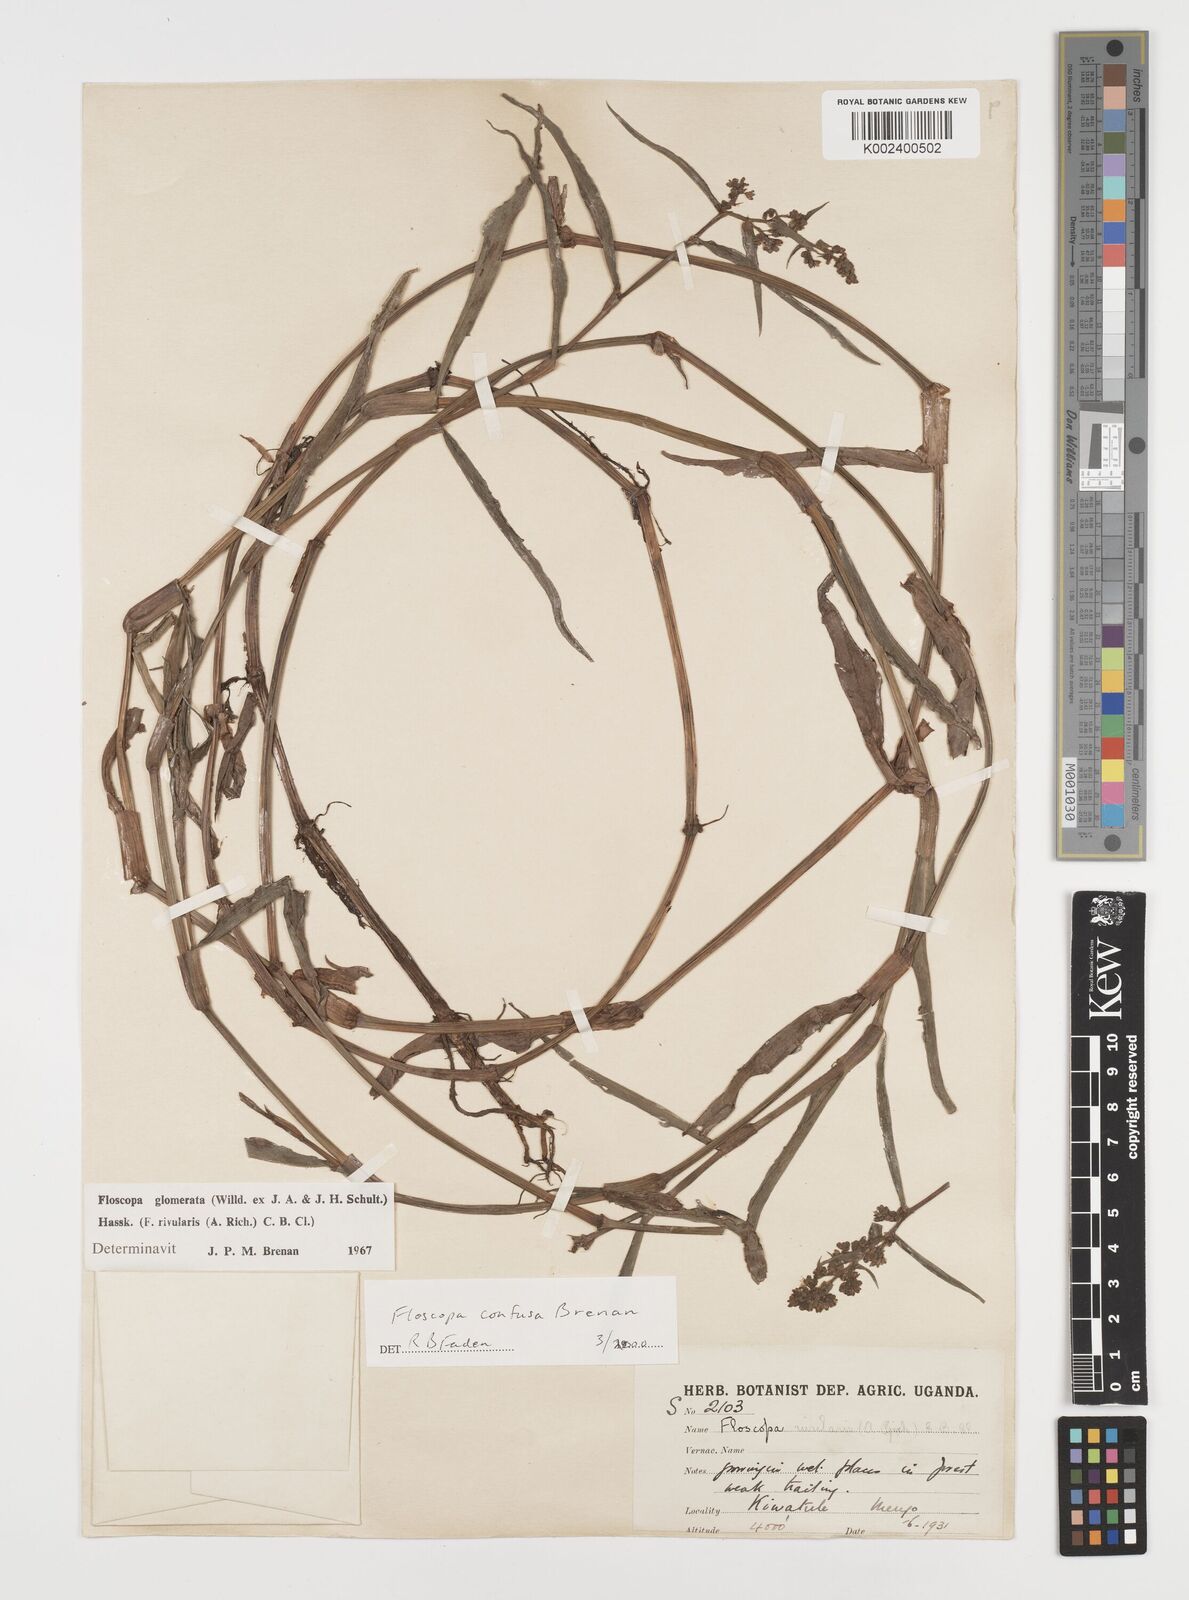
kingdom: Plantae
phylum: Tracheophyta
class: Liliopsida
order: Commelinales
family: Commelinaceae
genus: Floscopa
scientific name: Floscopa confusa
